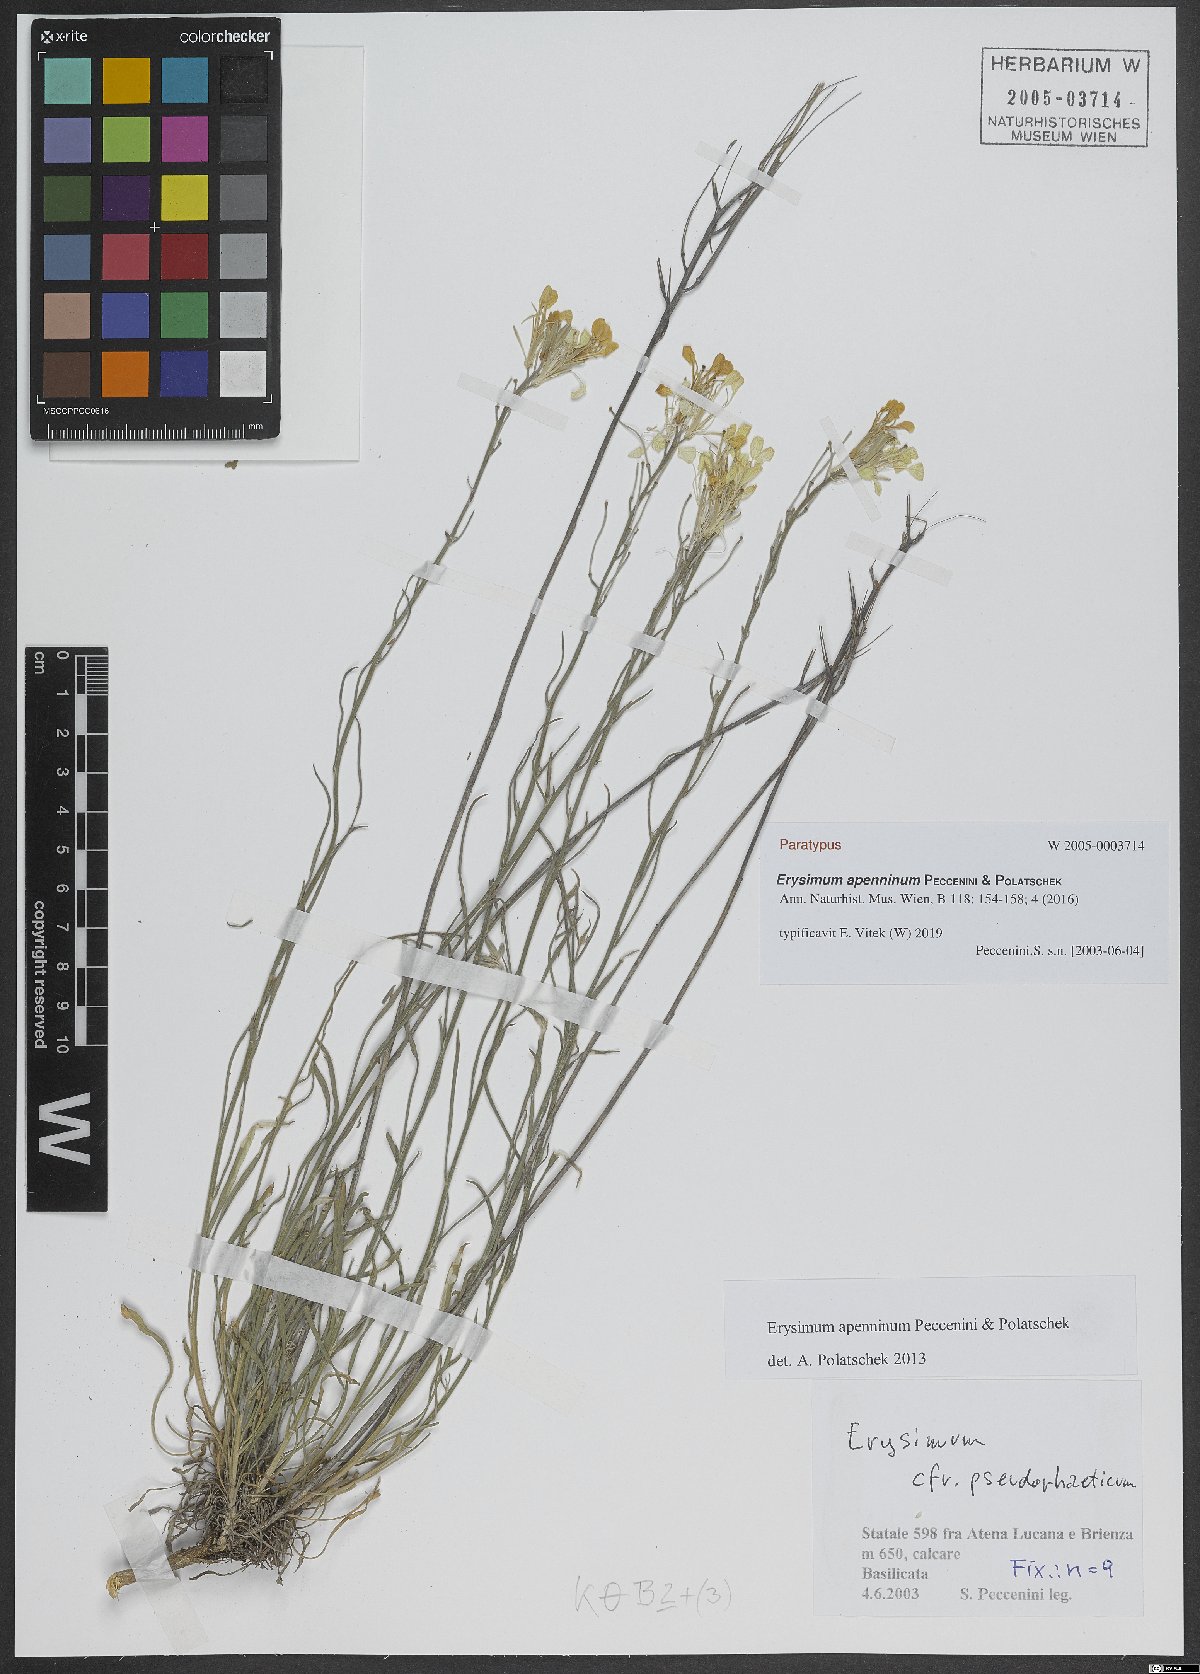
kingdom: Plantae
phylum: Tracheophyta
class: Magnoliopsida
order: Brassicales
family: Brassicaceae
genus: Erysimum
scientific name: Erysimum apenninum
